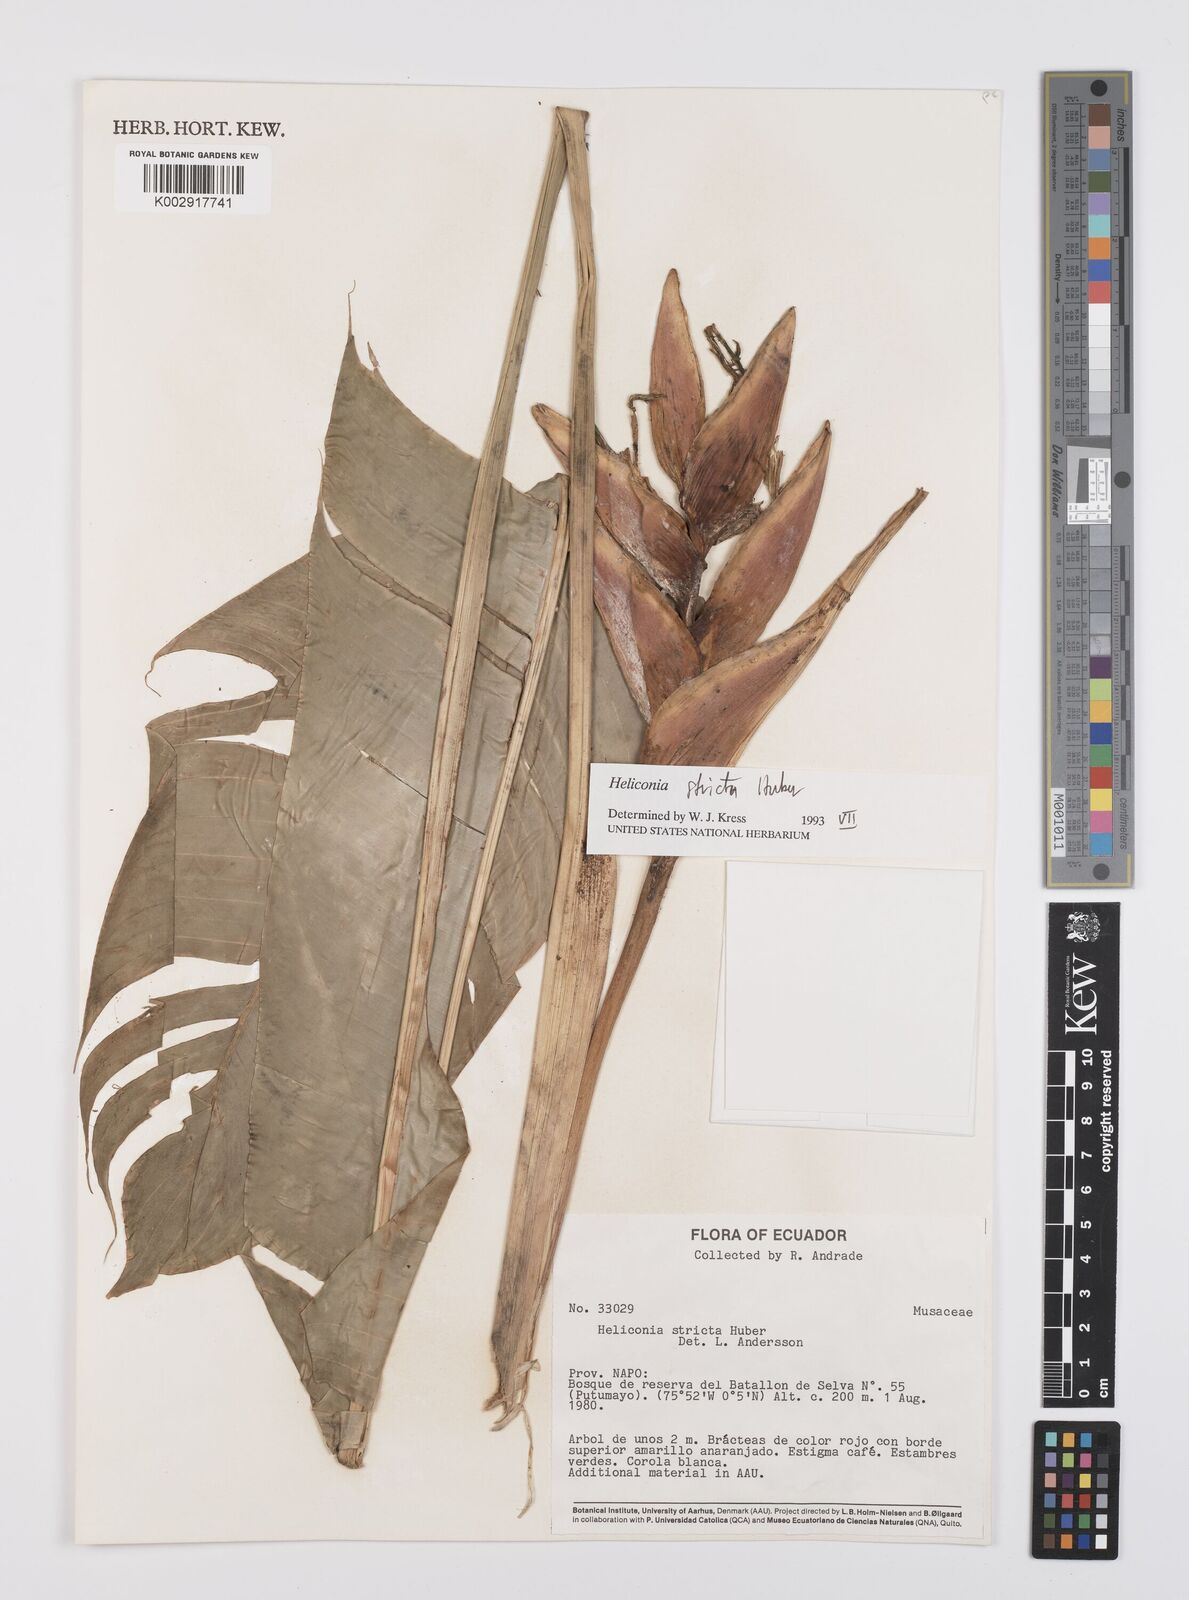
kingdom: Plantae
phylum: Tracheophyta
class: Liliopsida
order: Zingiberales
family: Heliconiaceae
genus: Heliconia
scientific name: Heliconia stricta
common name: Small lobster claw
